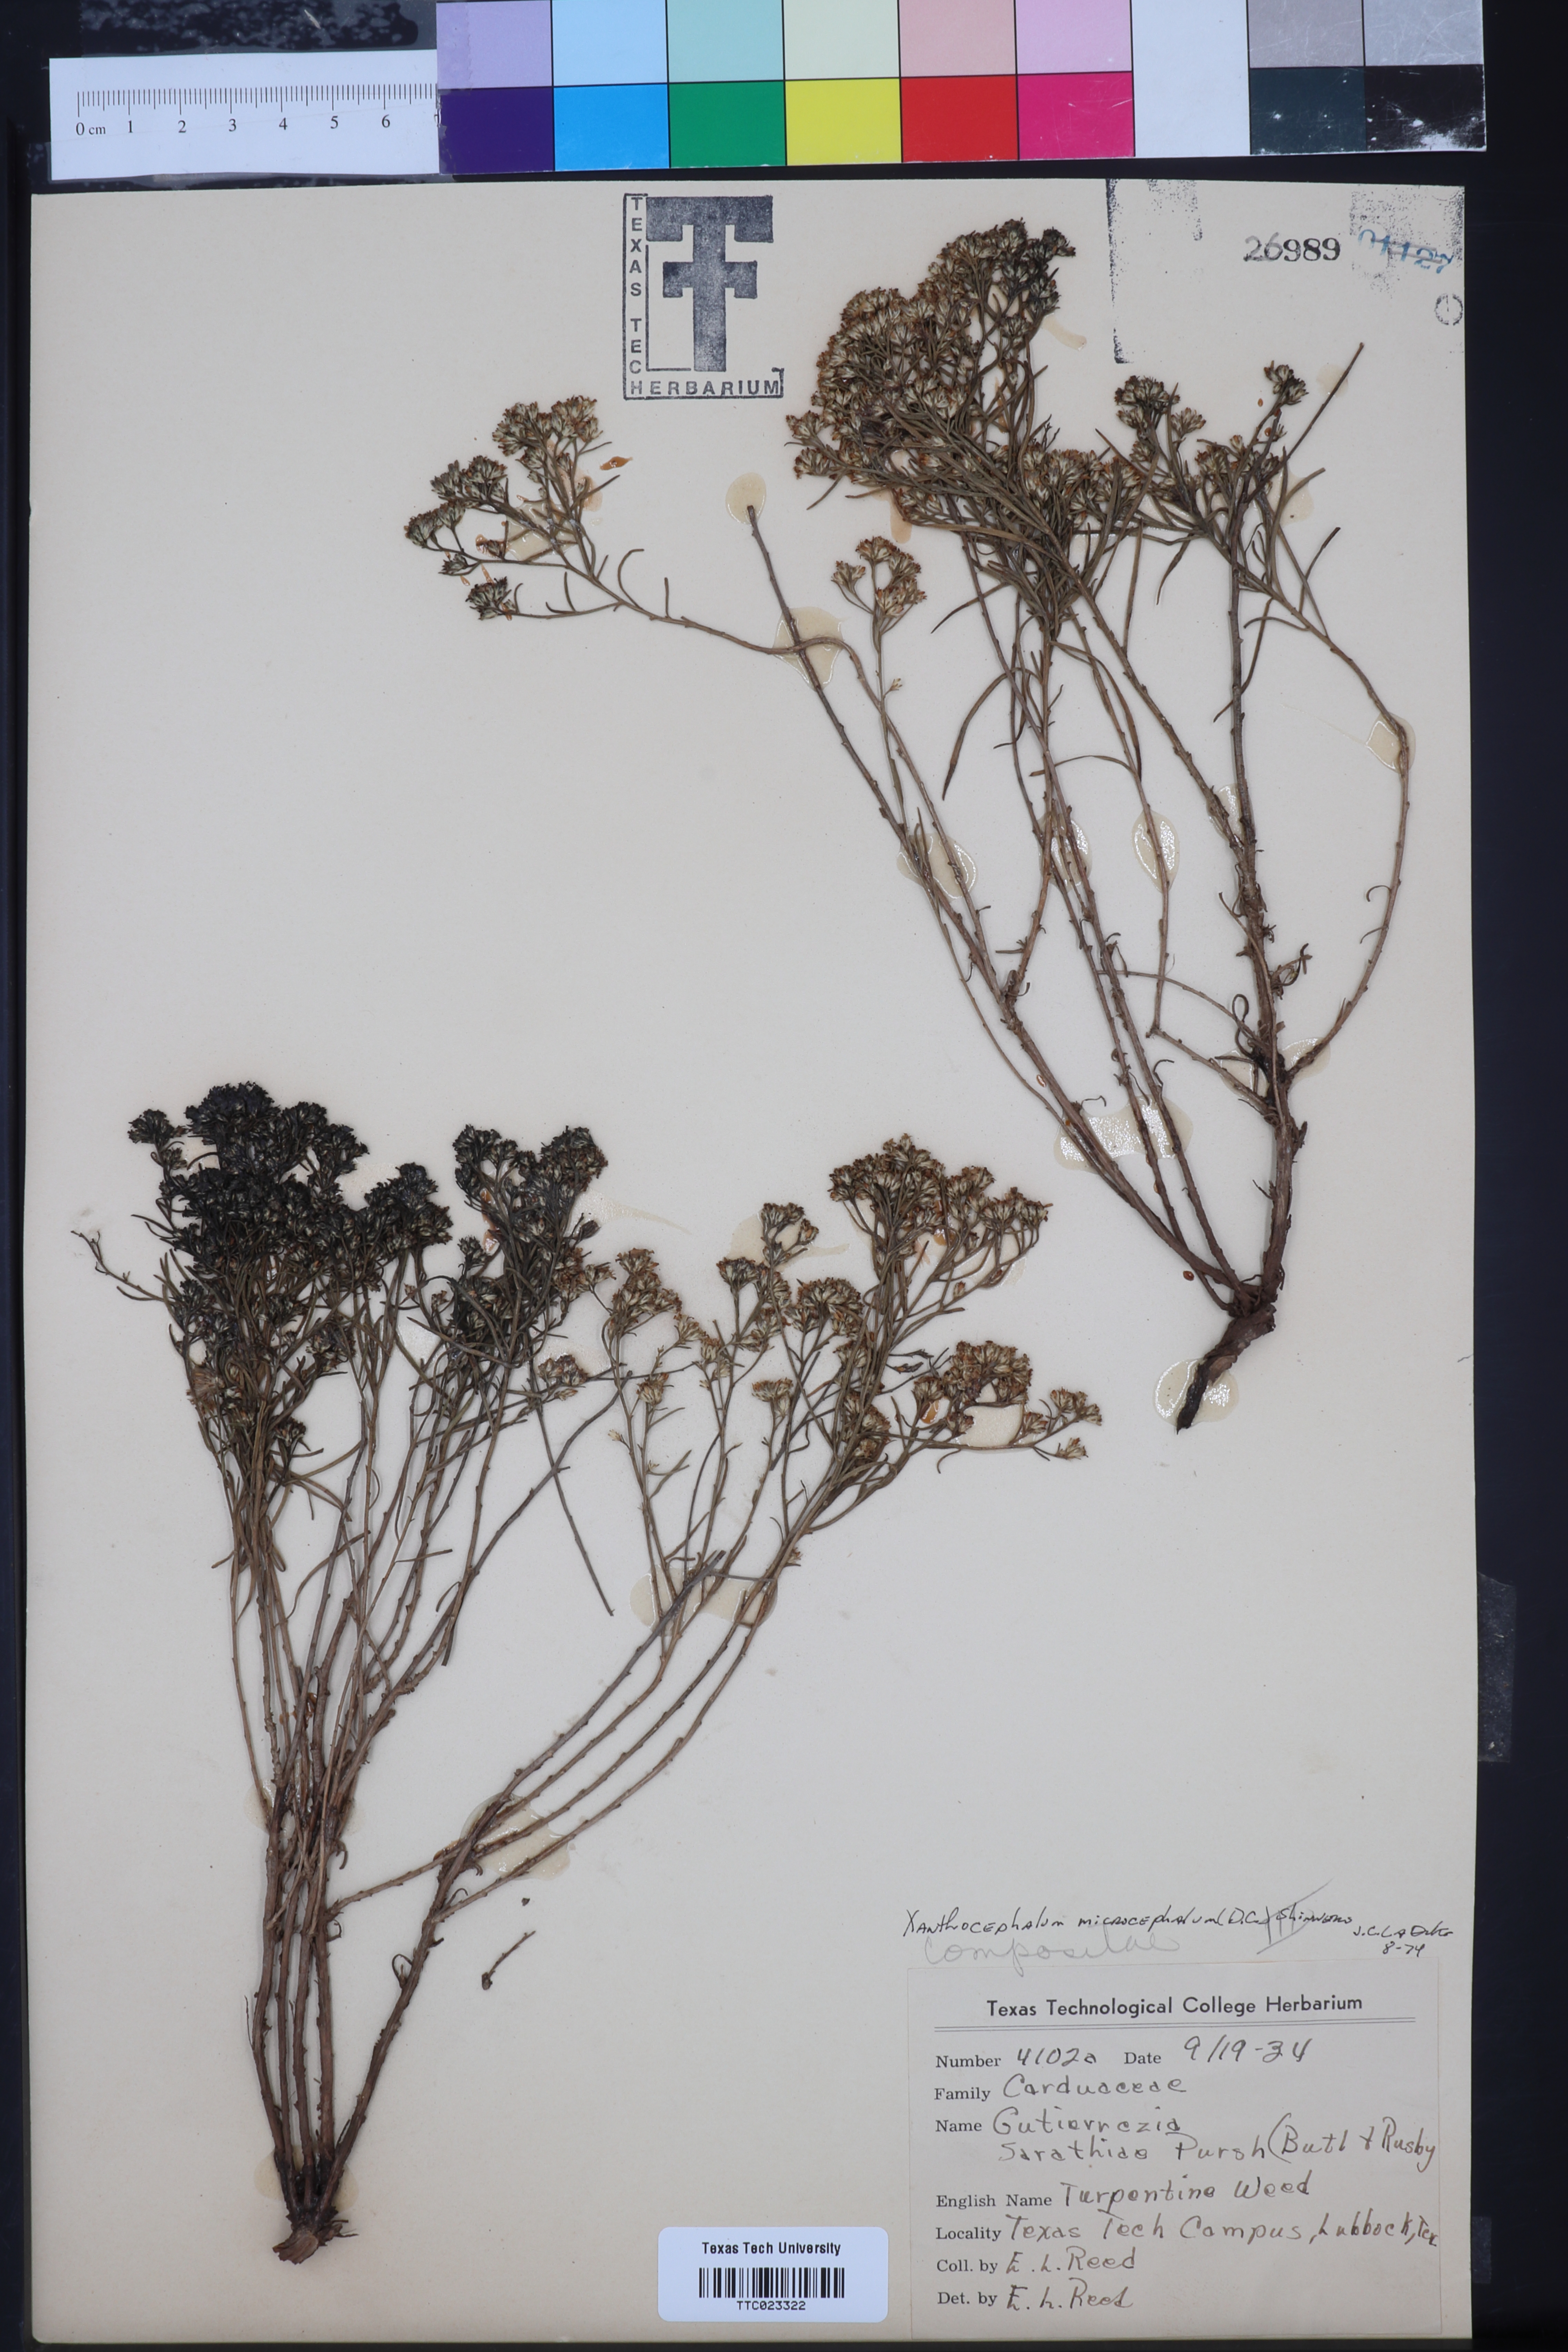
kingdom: Plantae
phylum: Tracheophyta
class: Magnoliopsida
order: Asterales
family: Asteraceae
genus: Gutierrezia
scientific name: Gutierrezia microcephala
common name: Thread snakeweed
